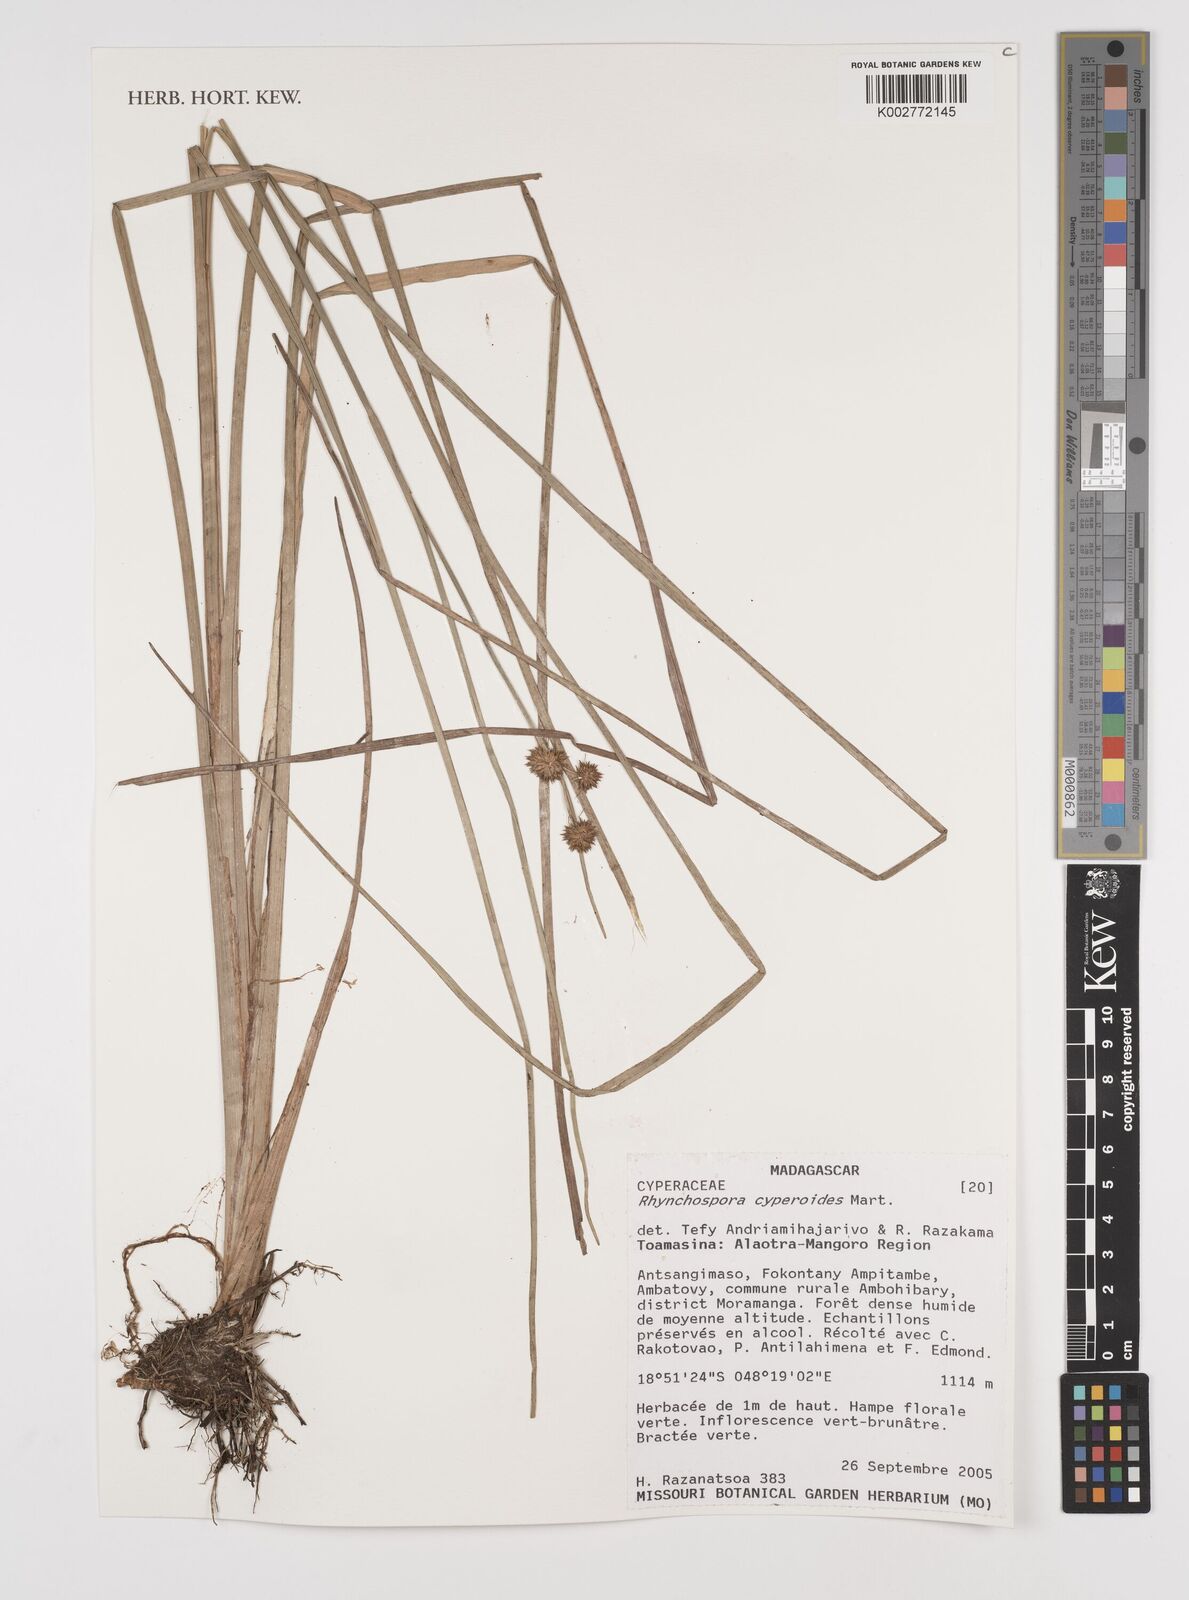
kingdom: Plantae
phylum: Tracheophyta
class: Liliopsida
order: Poales
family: Cyperaceae
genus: Rhynchospora
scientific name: Rhynchospora holoschoenoides
